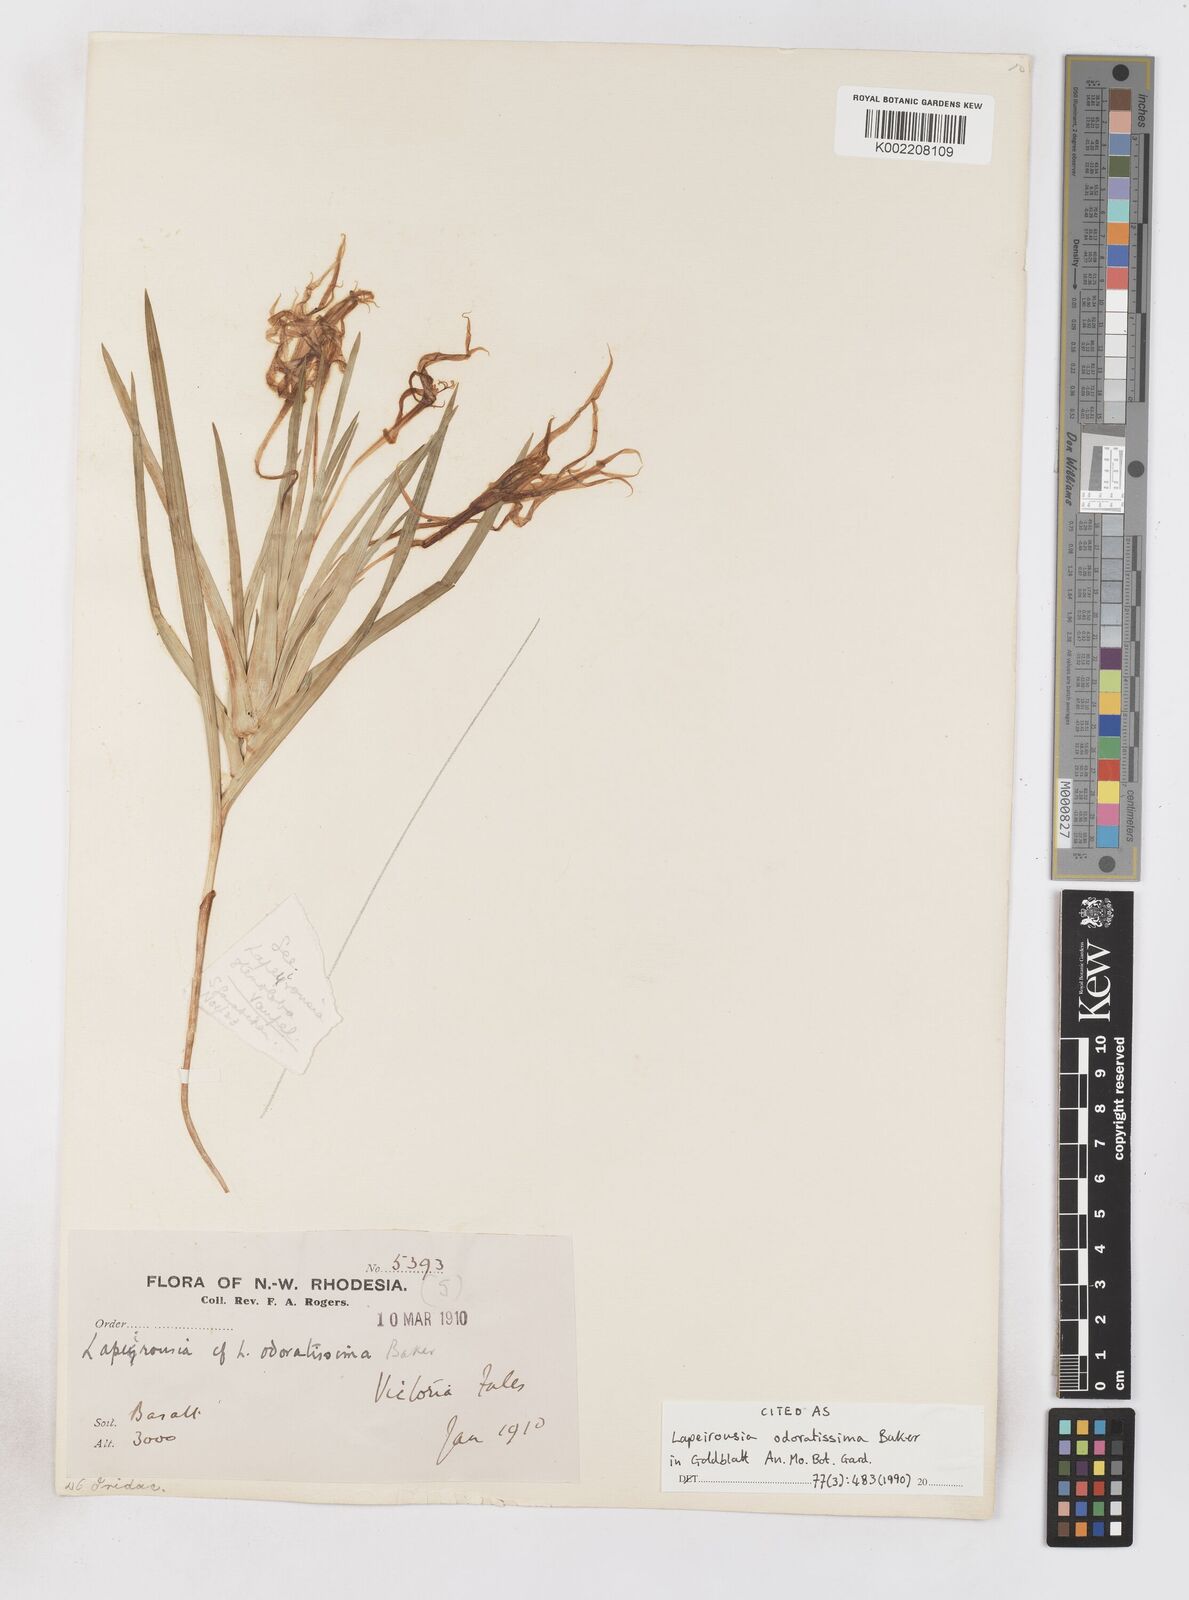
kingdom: Plantae
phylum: Tracheophyta
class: Liliopsida
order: Asparagales
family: Iridaceae
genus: Lapeirousia
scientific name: Lapeirousia odoratissima
